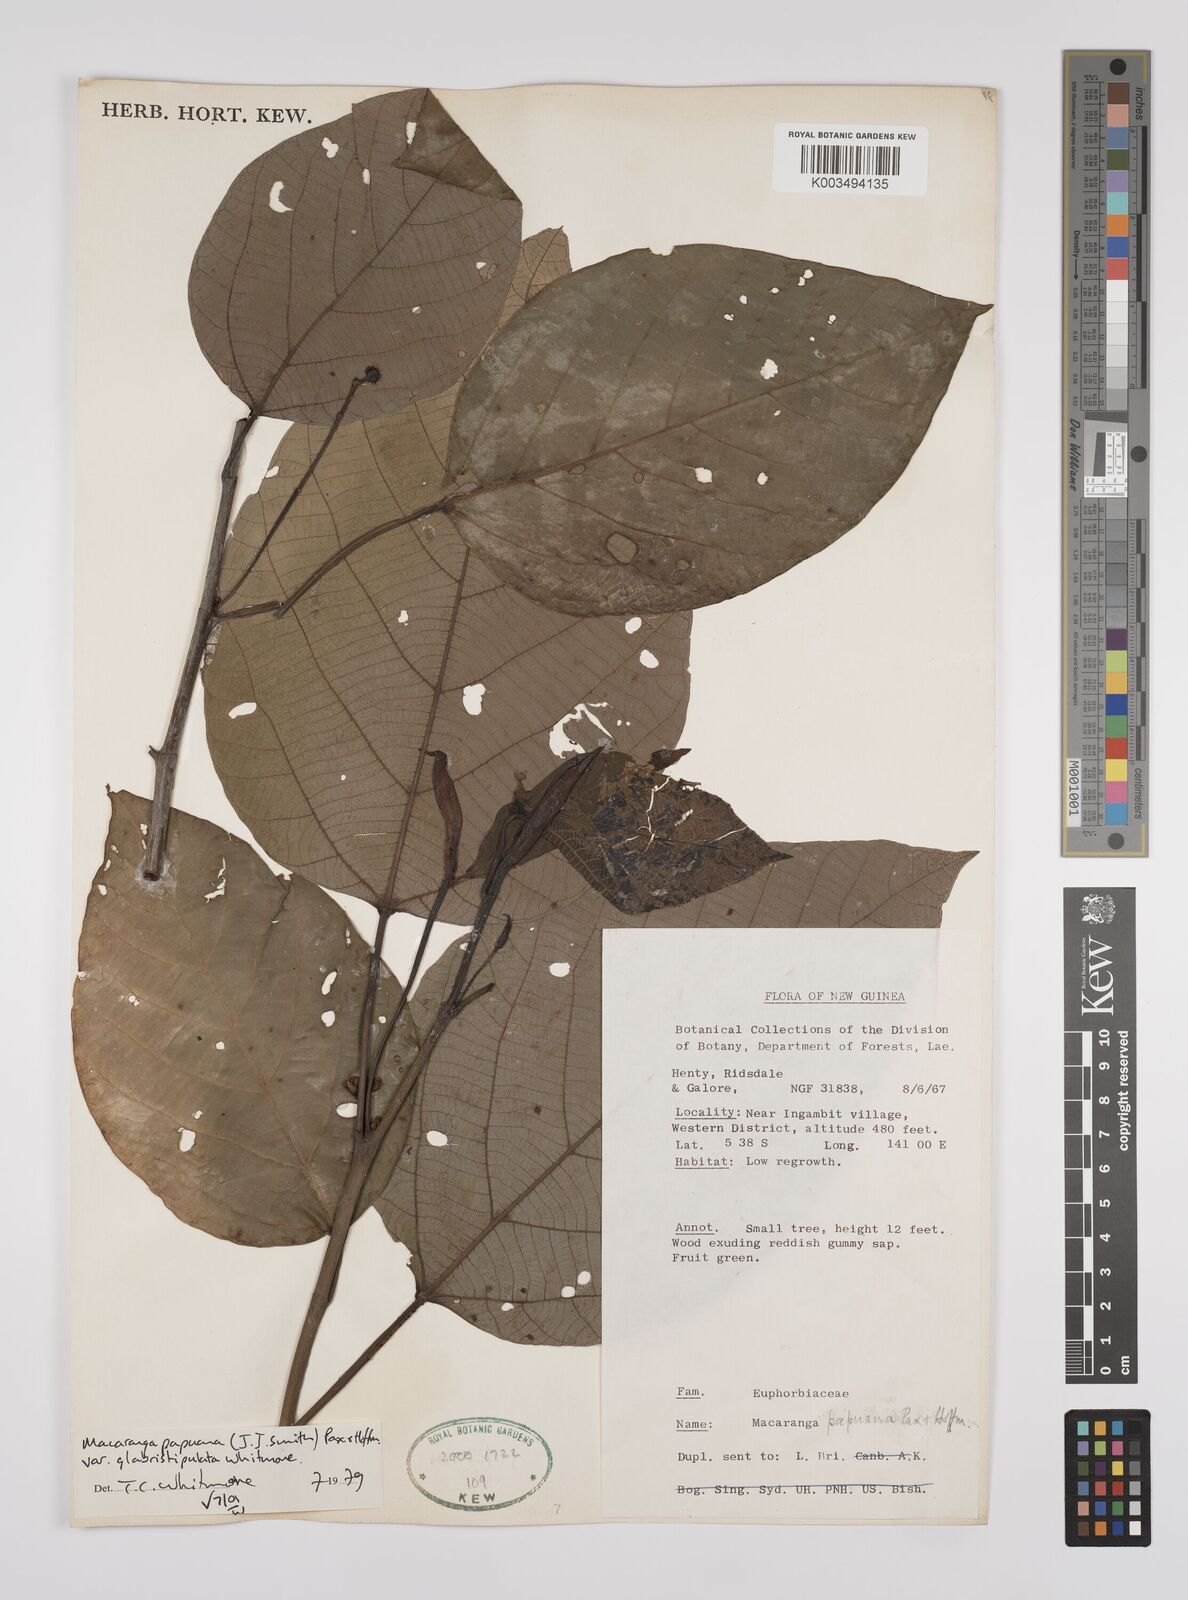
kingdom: Plantae
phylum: Tracheophyta
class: Magnoliopsida
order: Malpighiales
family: Euphorbiaceae
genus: Macaranga
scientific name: Macaranga aleuritoides
